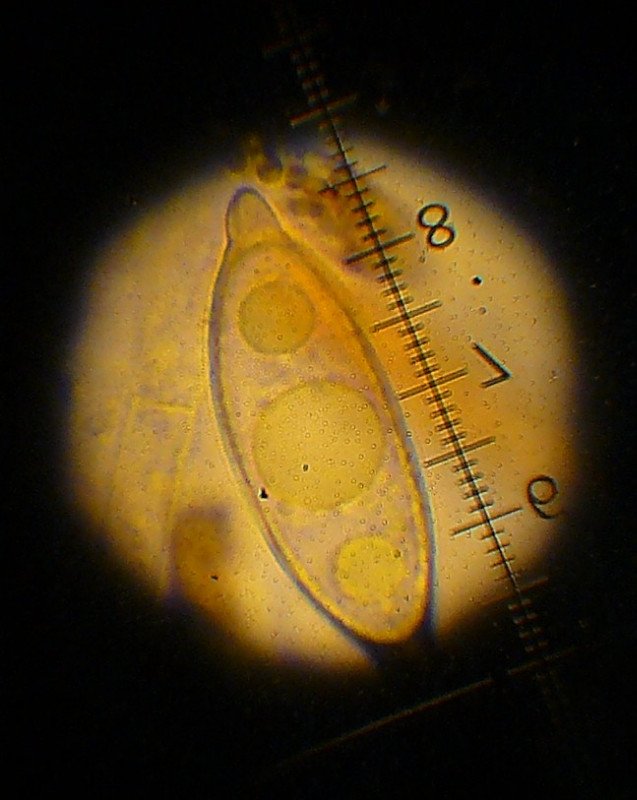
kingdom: Fungi
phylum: Ascomycota
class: Pezizomycetes
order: Pezizales
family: Discinaceae
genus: Discina
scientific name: Discina ancilis
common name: udbredt stenmorkel
